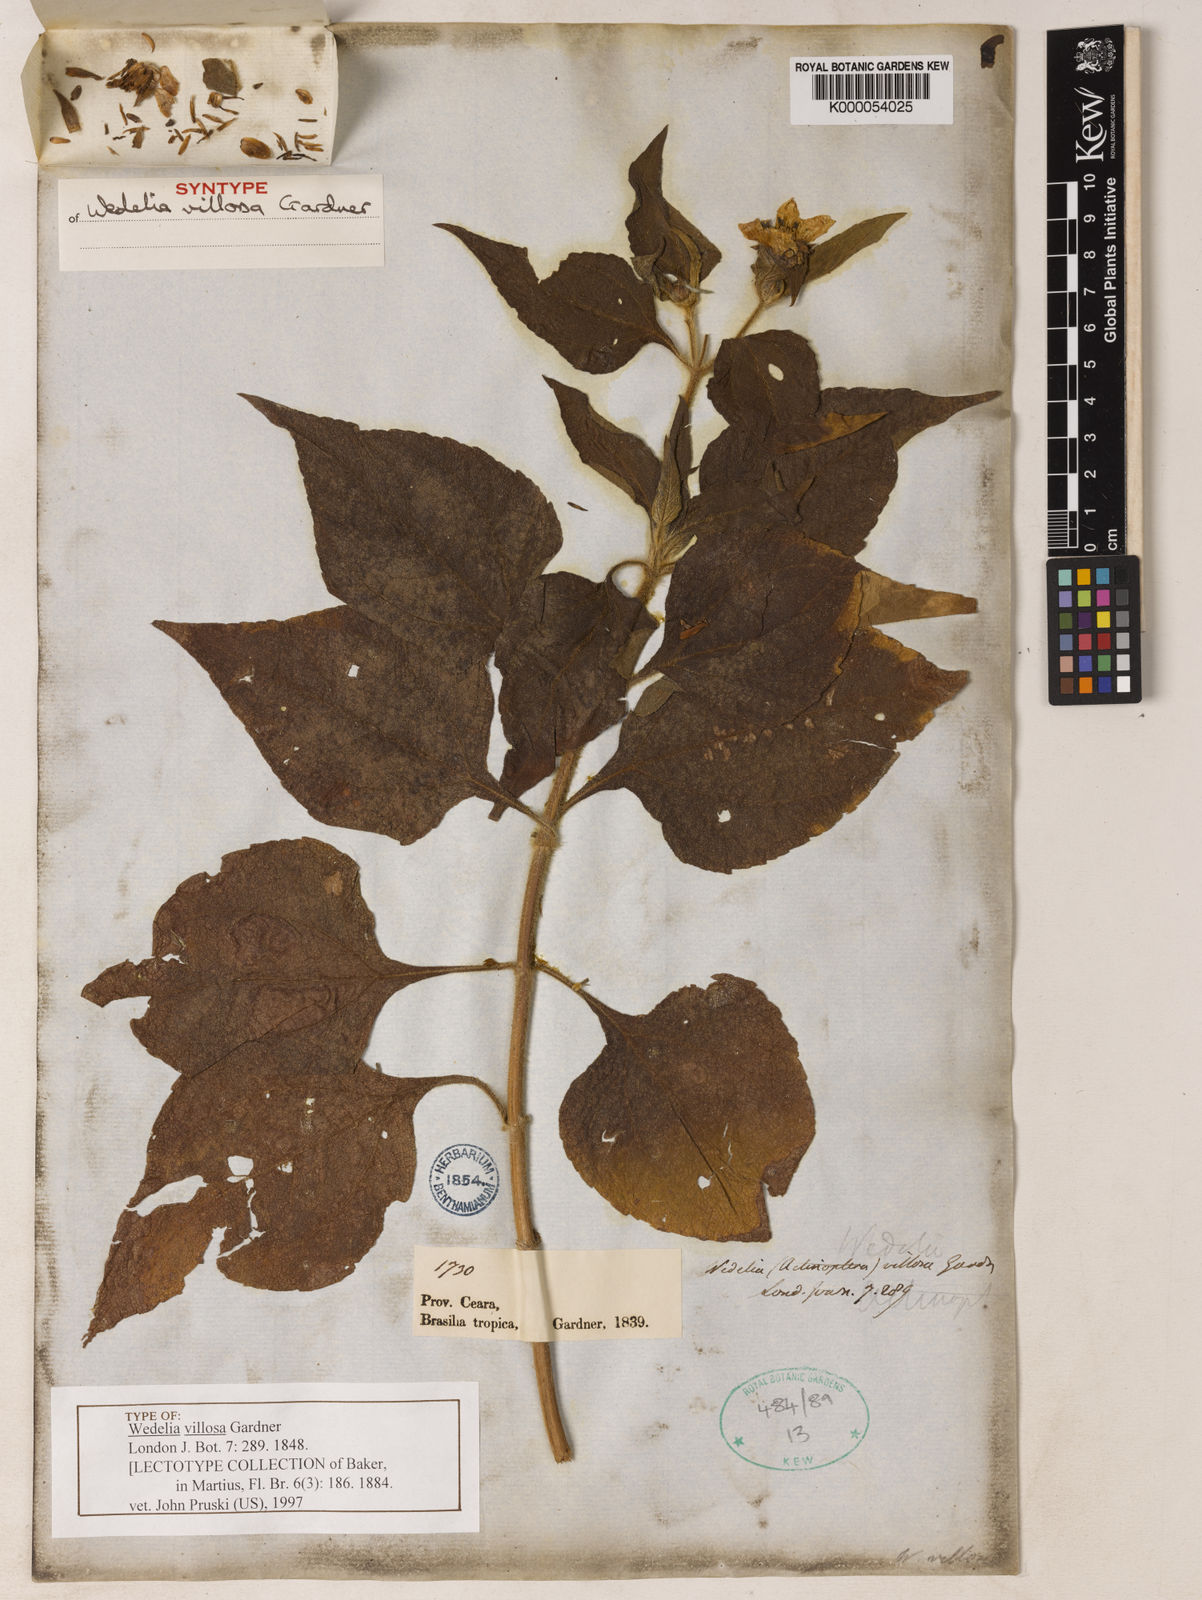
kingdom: Plantae
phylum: Tracheophyta
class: Magnoliopsida
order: Asterales
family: Asteraceae
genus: Wedelia
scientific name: Wedelia villosa
